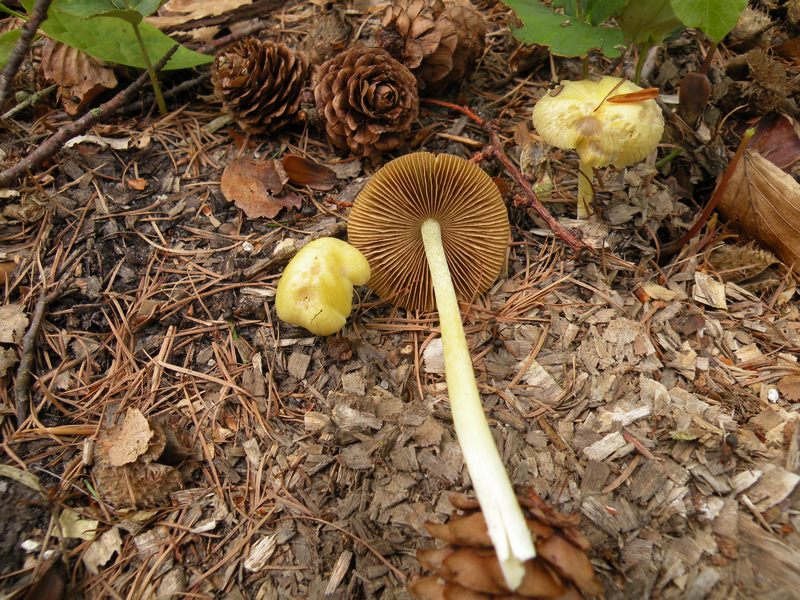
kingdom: Fungi
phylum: Basidiomycota
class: Agaricomycetes
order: Agaricales
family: Bolbitiaceae
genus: Bolbitius
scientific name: Bolbitius titubans
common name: almindelig gulhat
